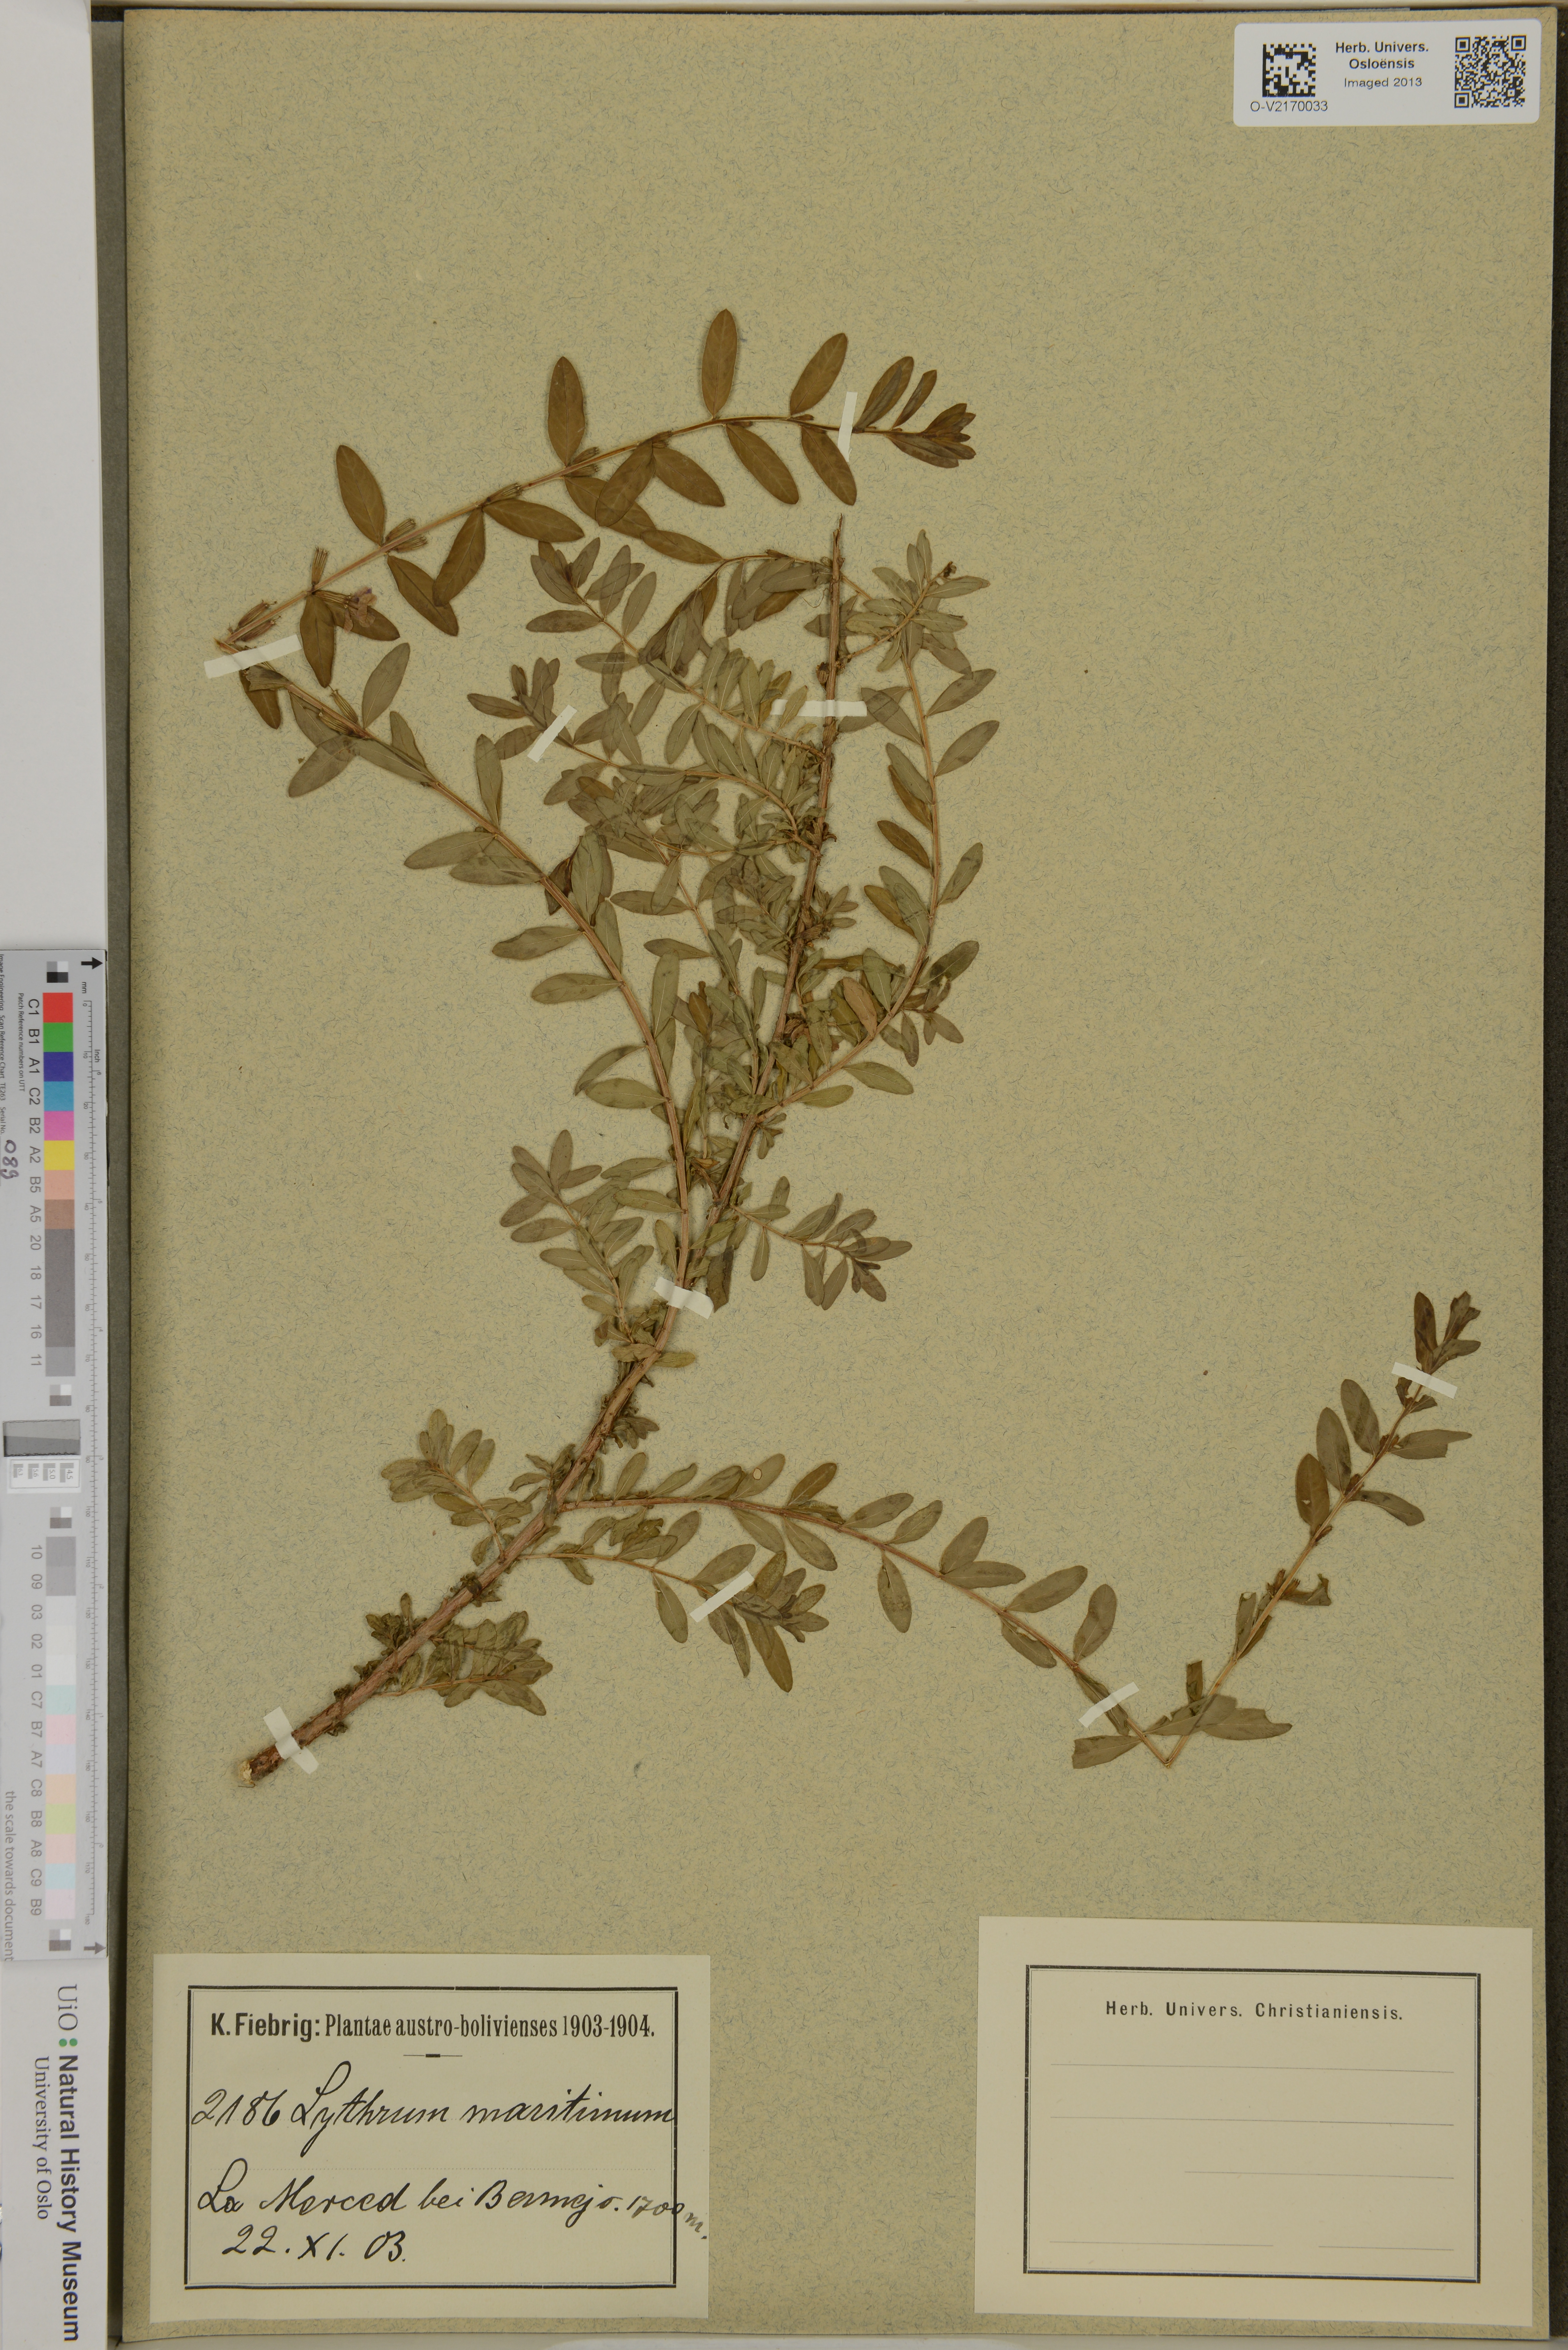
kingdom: Plantae
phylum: Tracheophyta
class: Magnoliopsida
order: Myrtales
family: Lythraceae
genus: Lythrum
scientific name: Lythrum maritimum
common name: Pukamole
